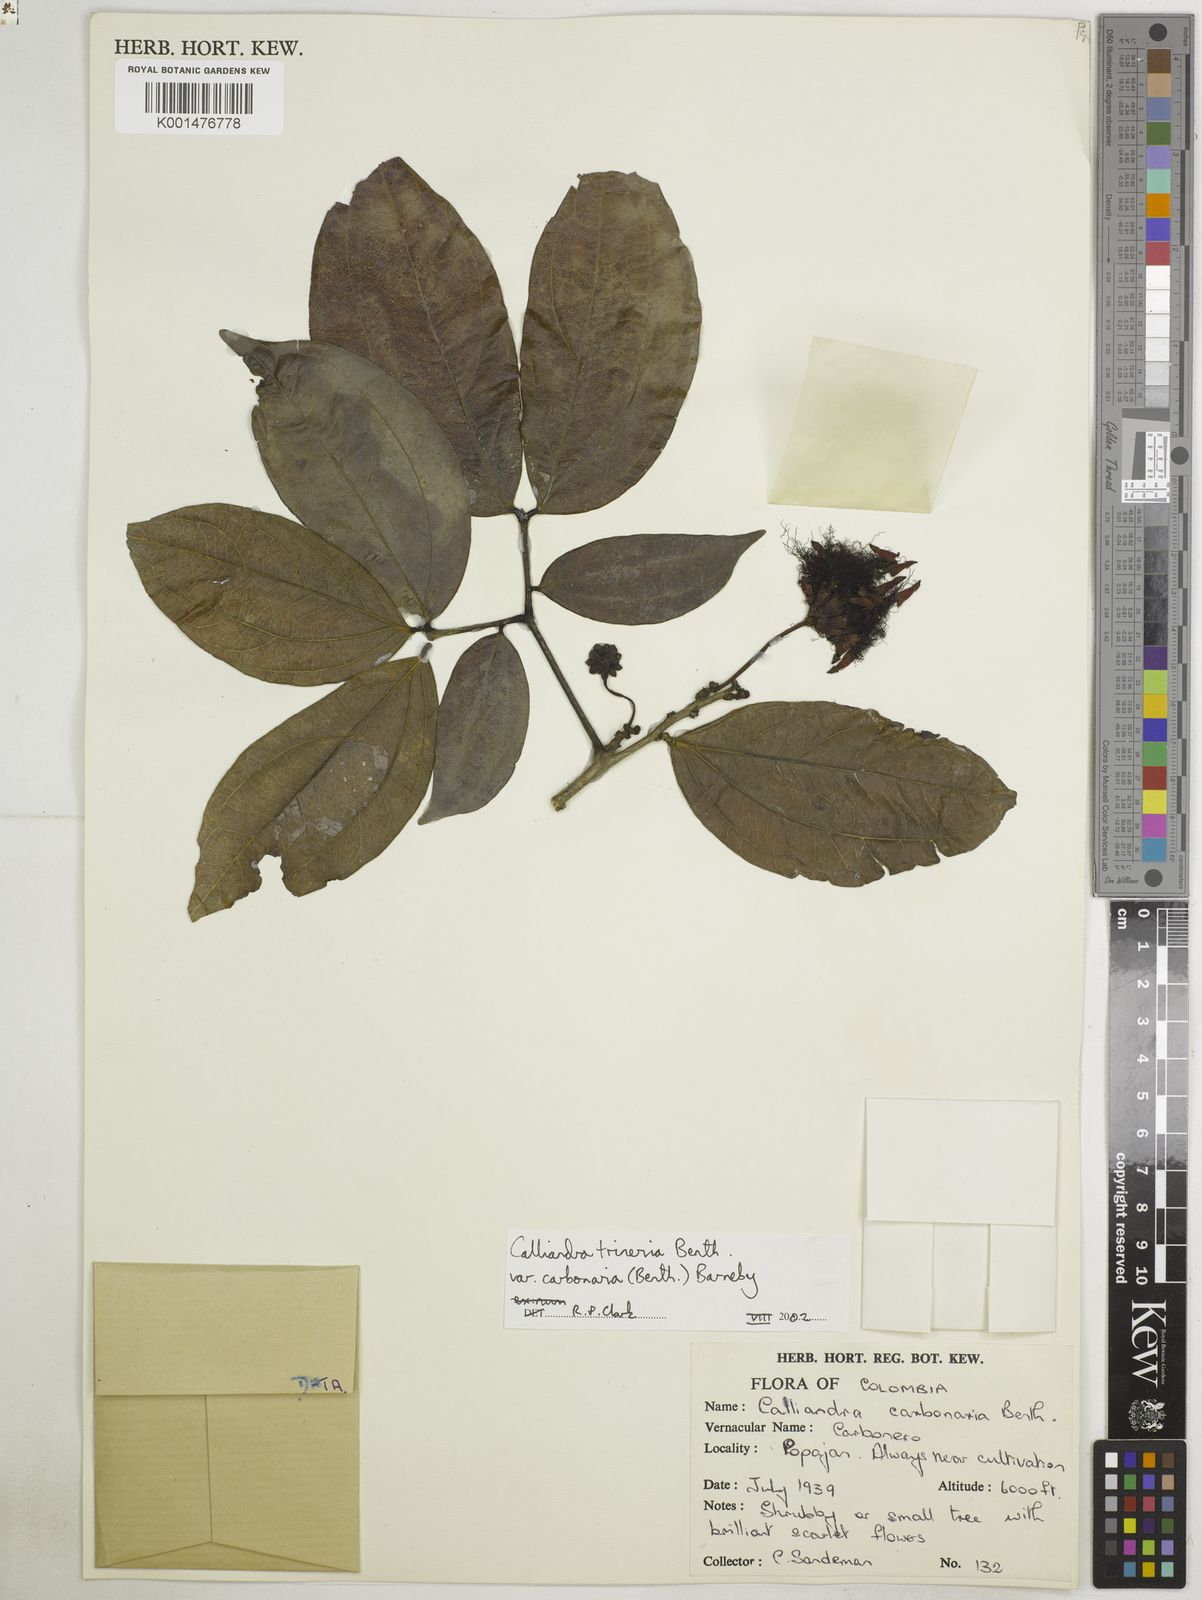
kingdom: Plantae
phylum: Tracheophyta
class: Magnoliopsida
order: Fabales
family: Fabaceae
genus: Calliandra
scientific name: Calliandra trinervia
